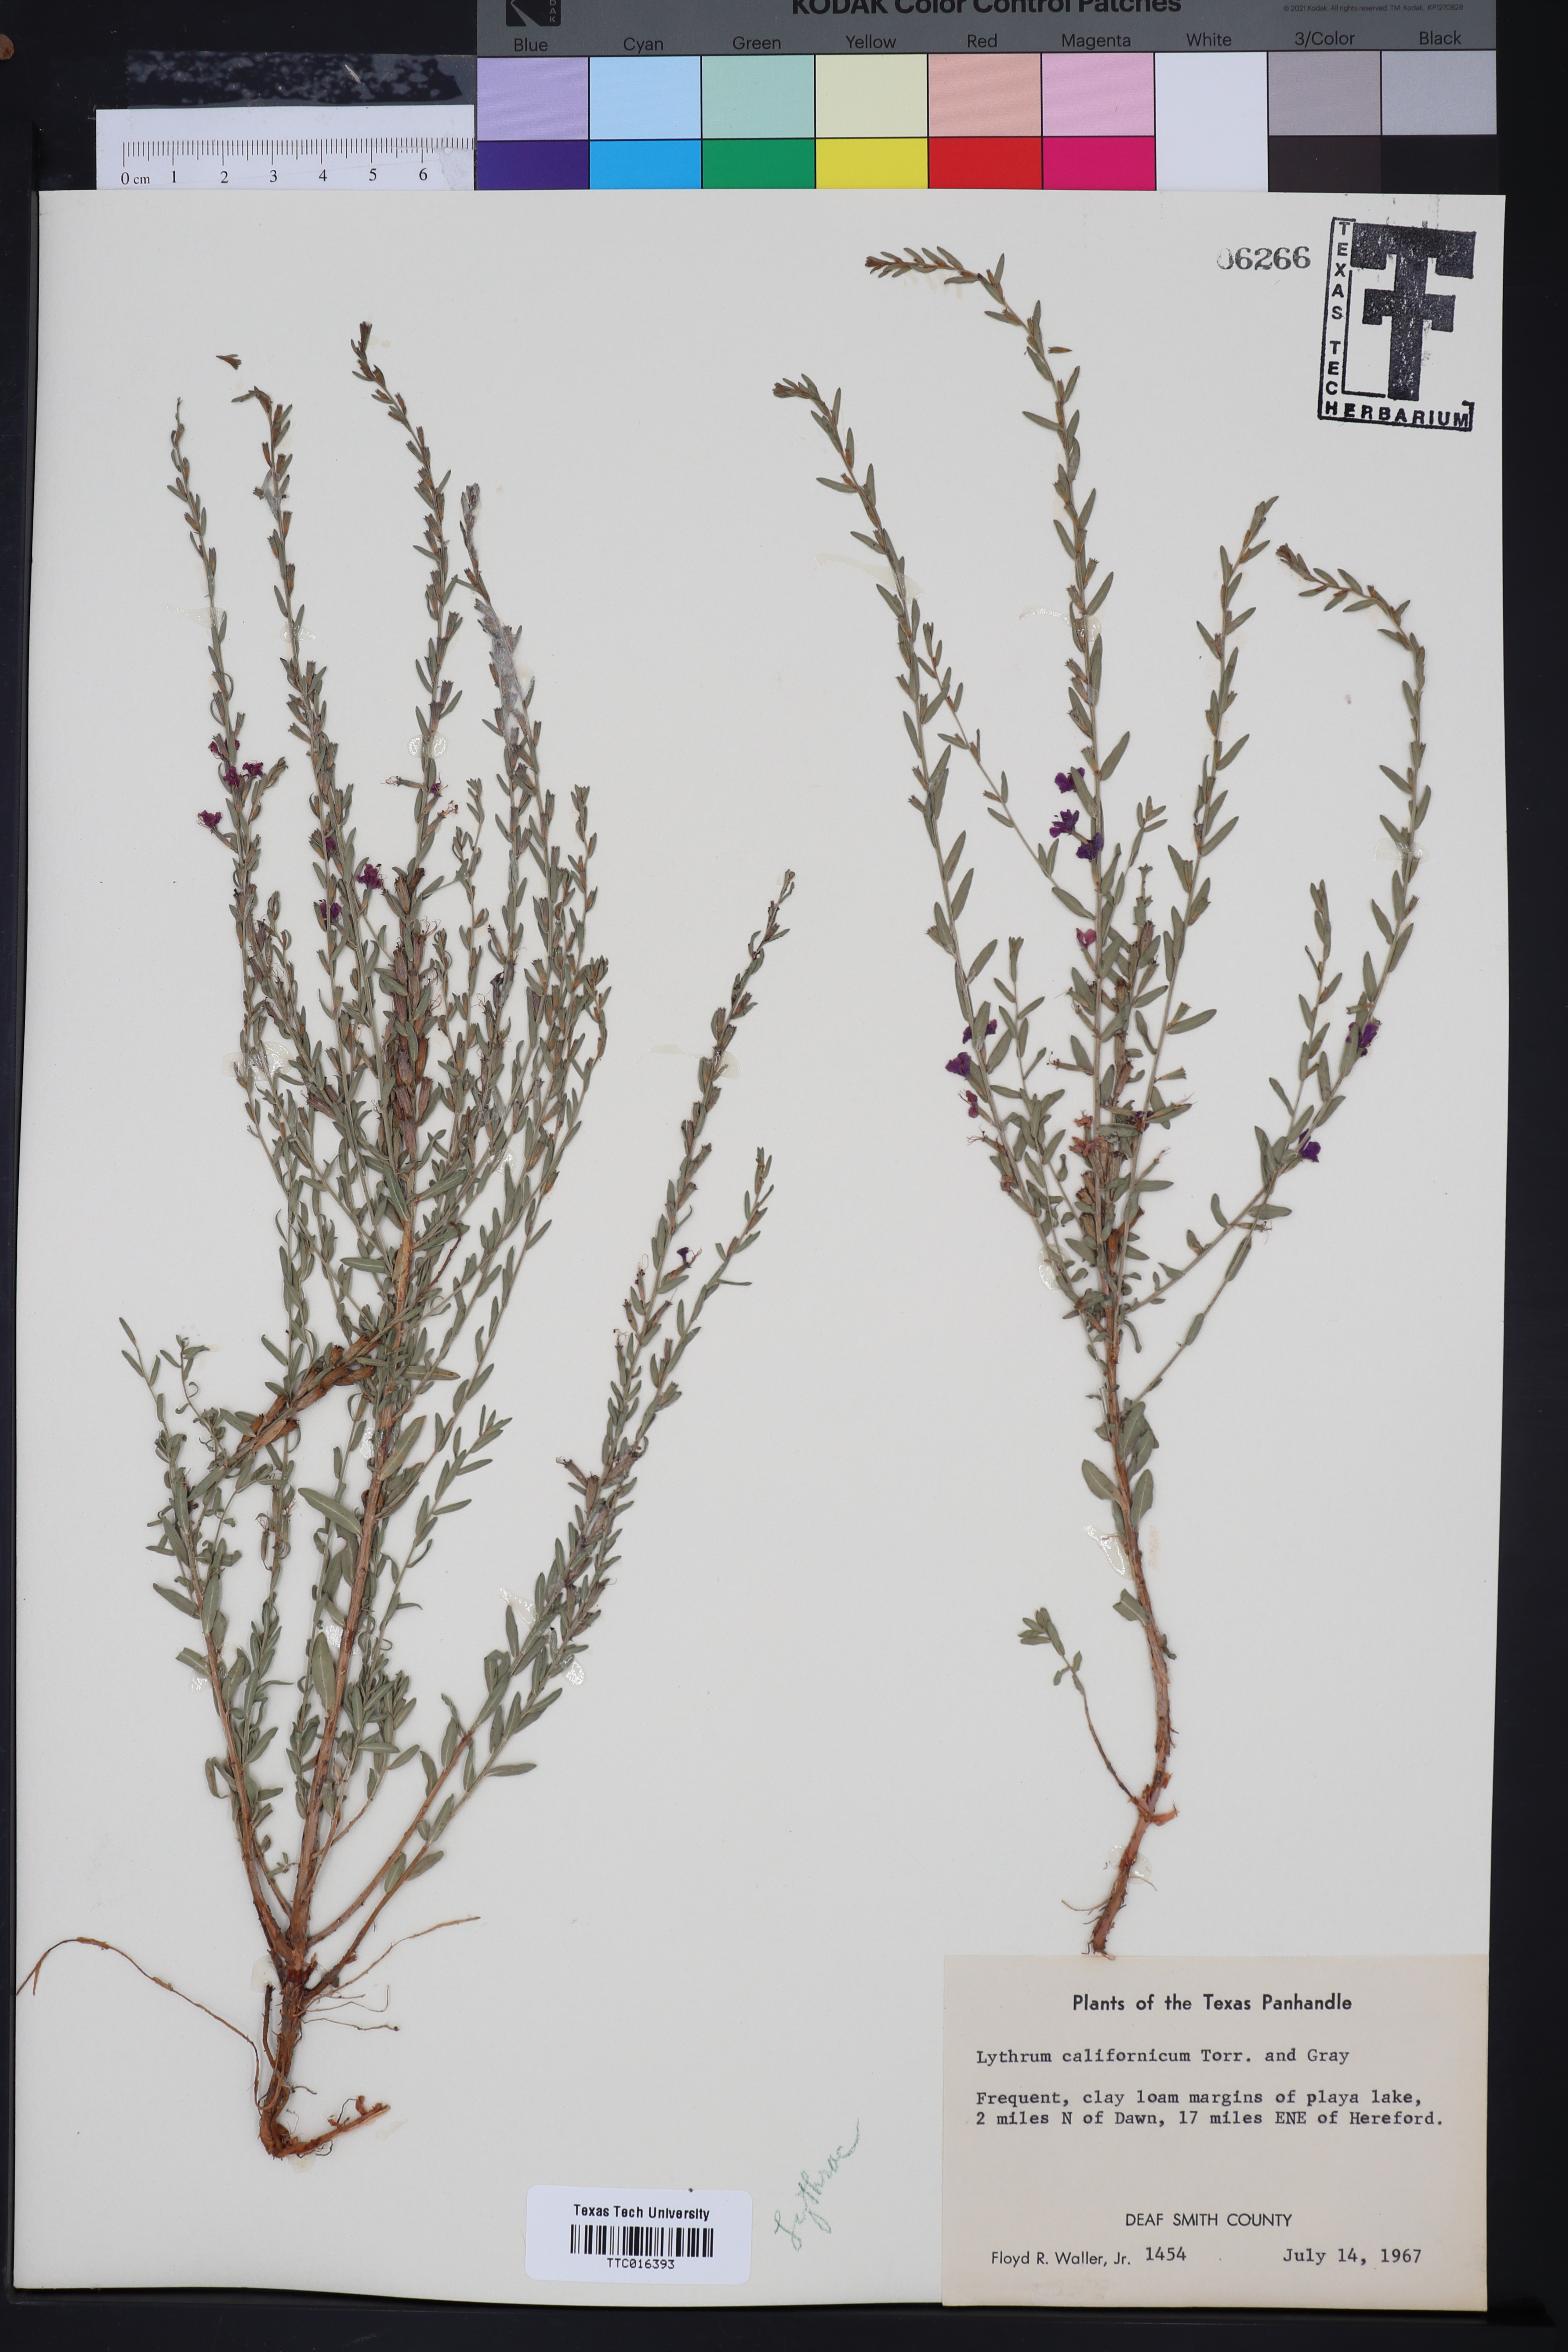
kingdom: Plantae
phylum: Tracheophyta
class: Magnoliopsida
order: Myrtales
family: Lythraceae
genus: Lythrum
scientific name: Lythrum californicum
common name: California loosestrife
